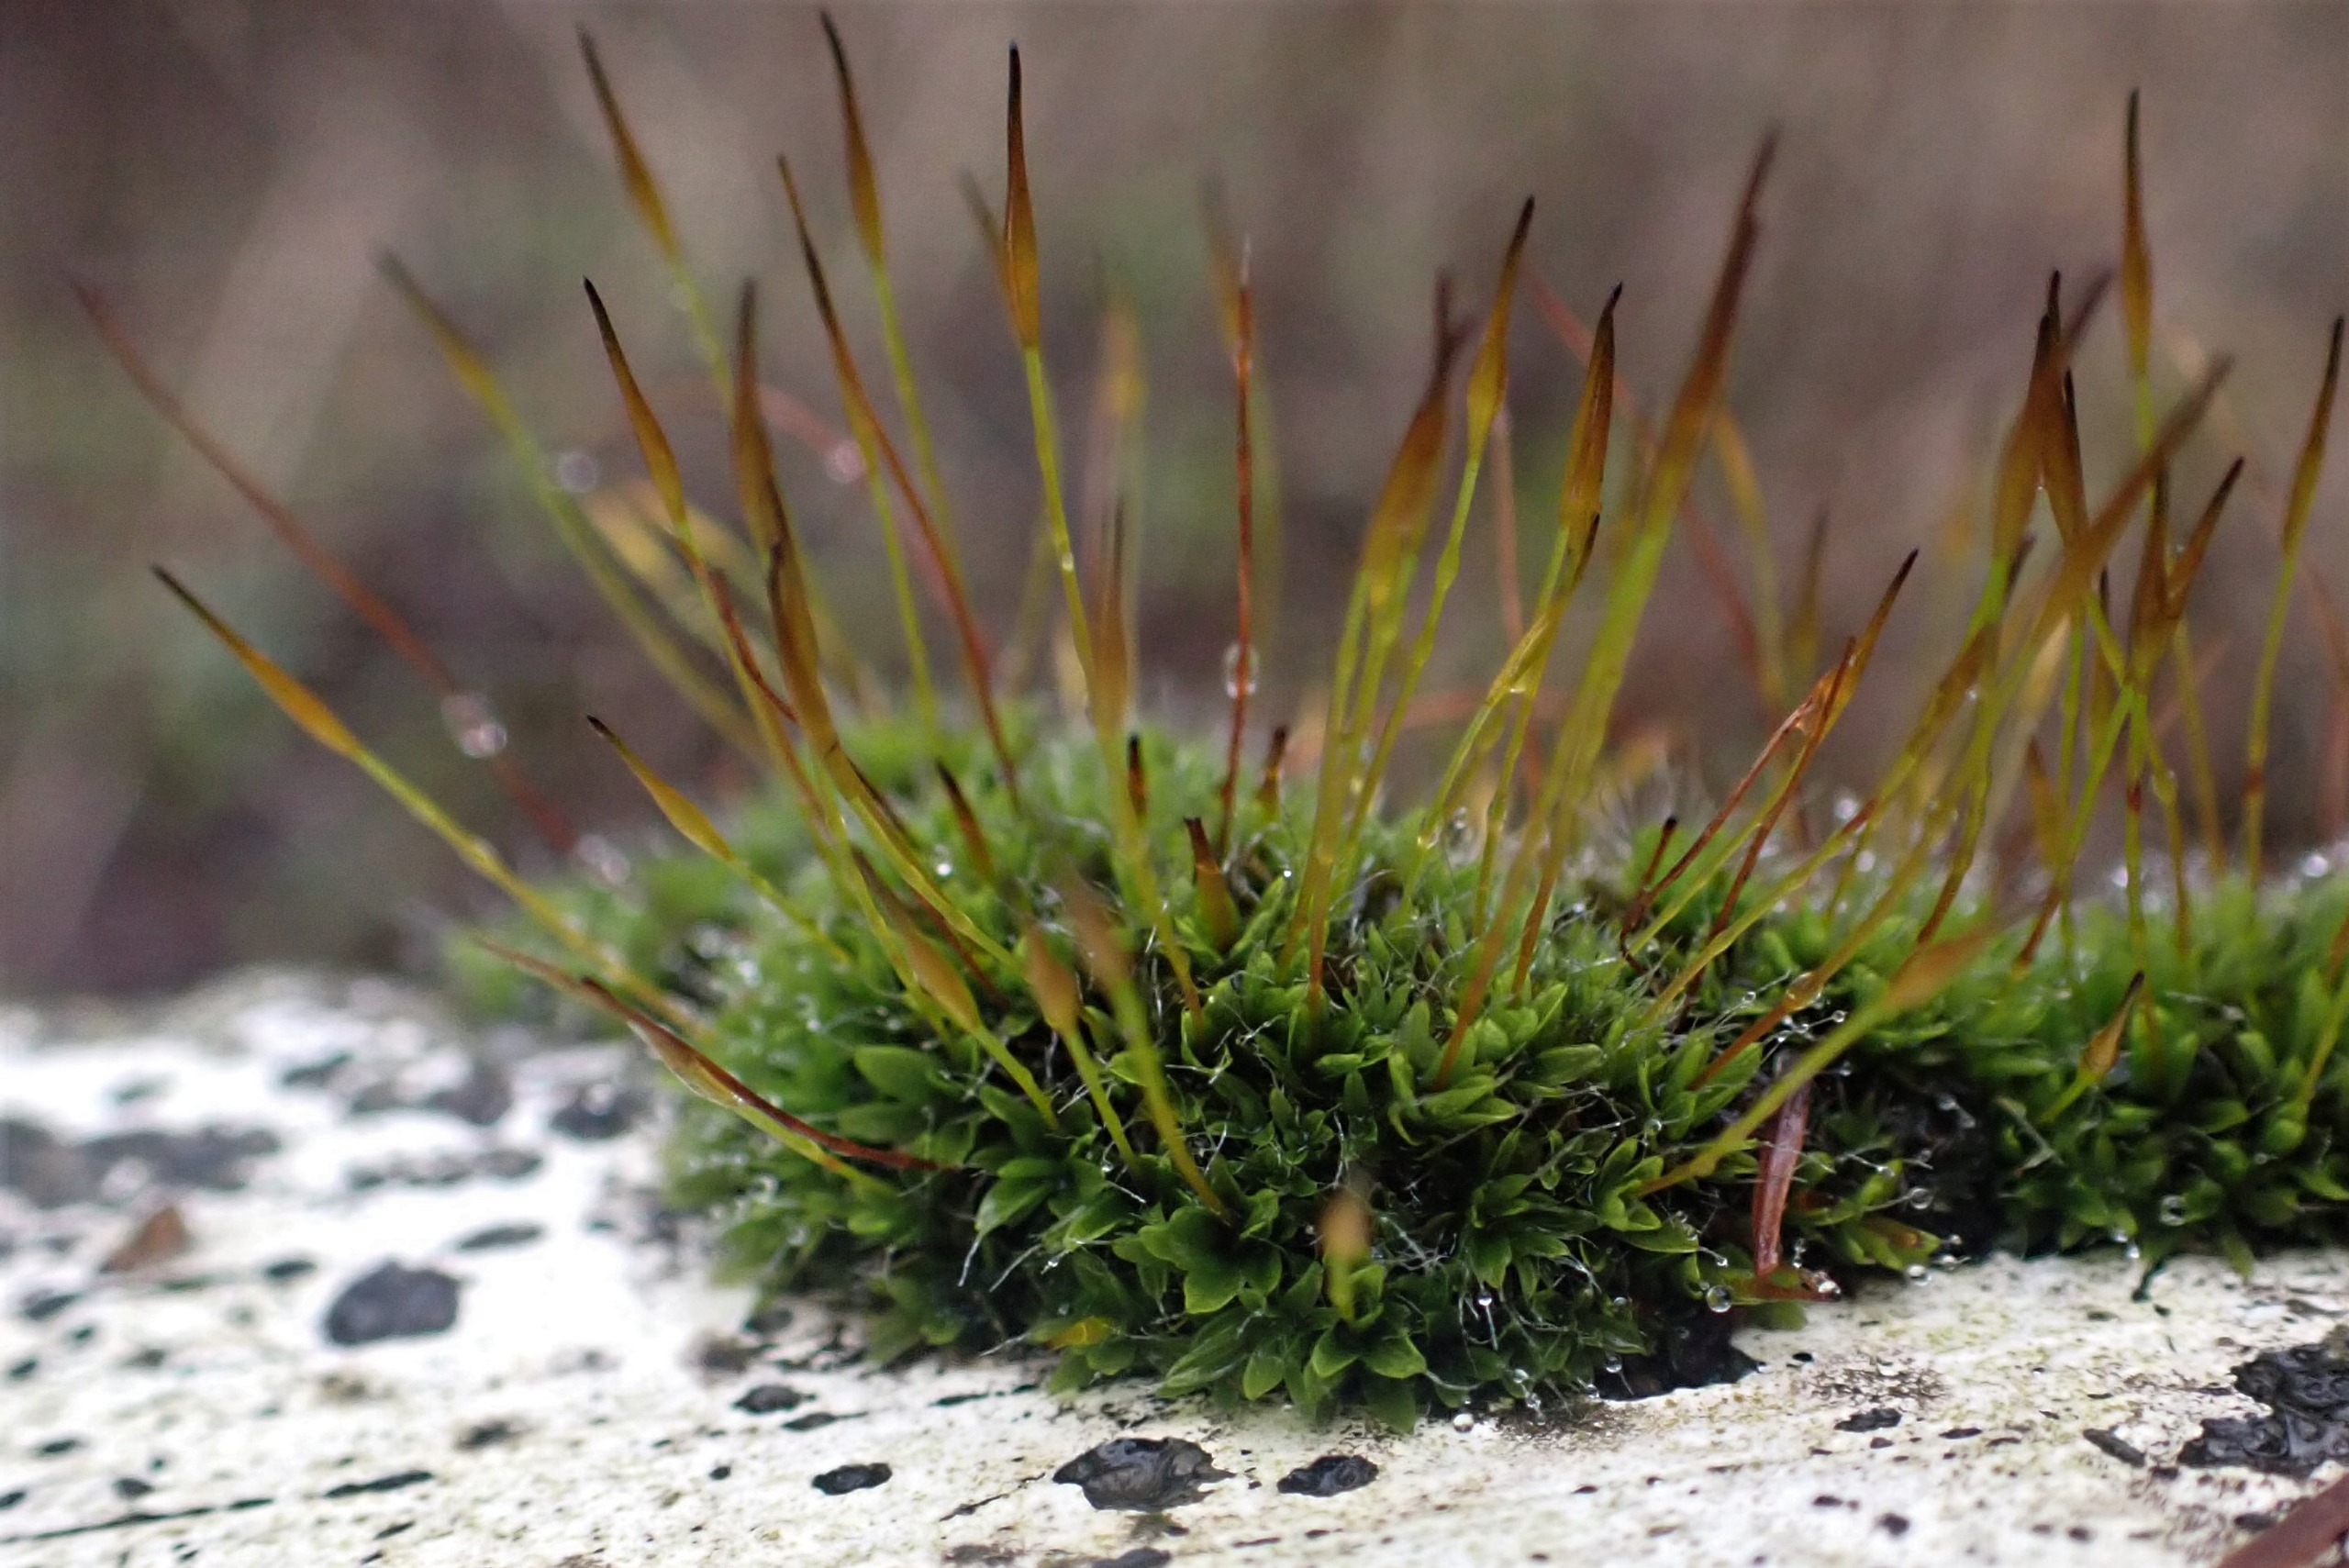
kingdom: Plantae
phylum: Bryophyta
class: Bryopsida
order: Pottiales
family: Pottiaceae
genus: Tortula
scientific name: Tortula muralis
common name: Mur-snotand
